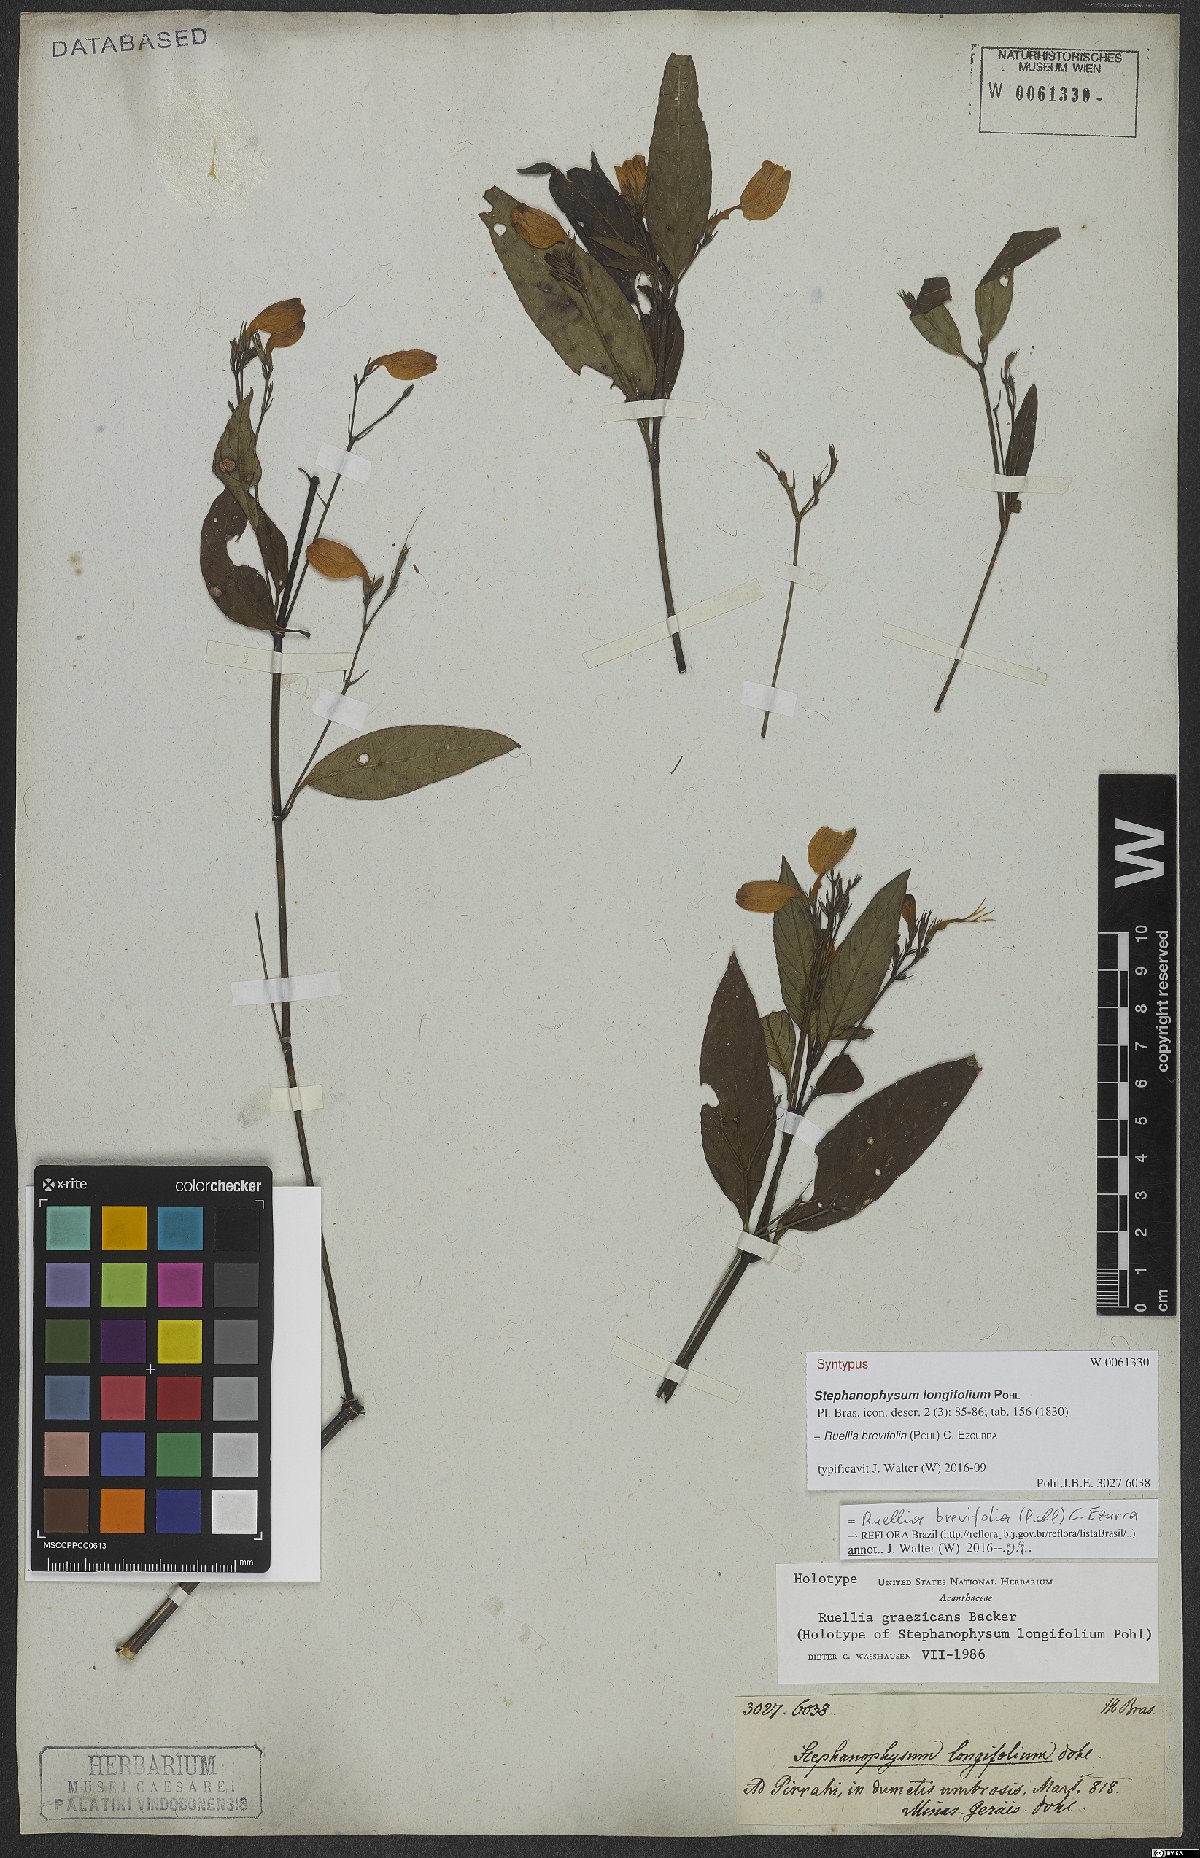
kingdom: Plantae
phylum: Tracheophyta
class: Magnoliopsida
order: Lamiales
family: Acanthaceae
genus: Ruellia
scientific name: Ruellia brevifolia
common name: Tropical wild petunia
